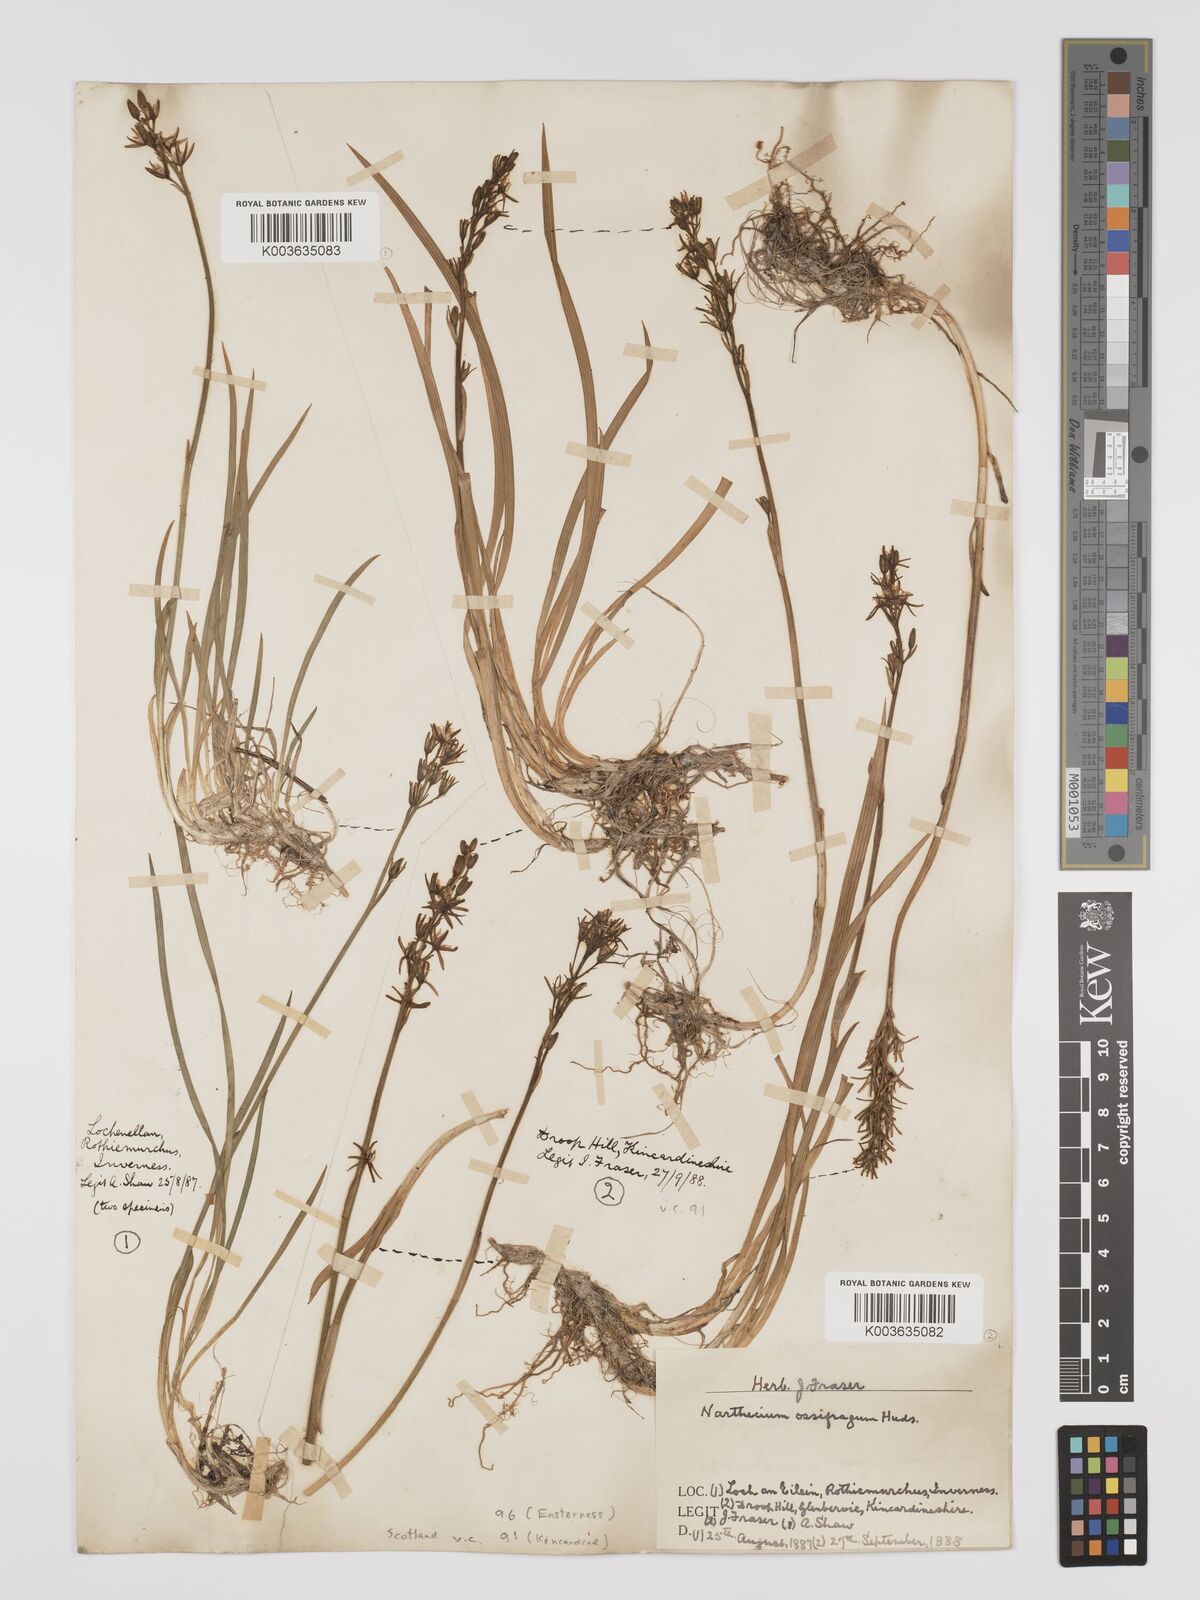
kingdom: Plantae
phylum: Tracheophyta
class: Liliopsida
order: Dioscoreales
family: Nartheciaceae
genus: Narthecium
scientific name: Narthecium
